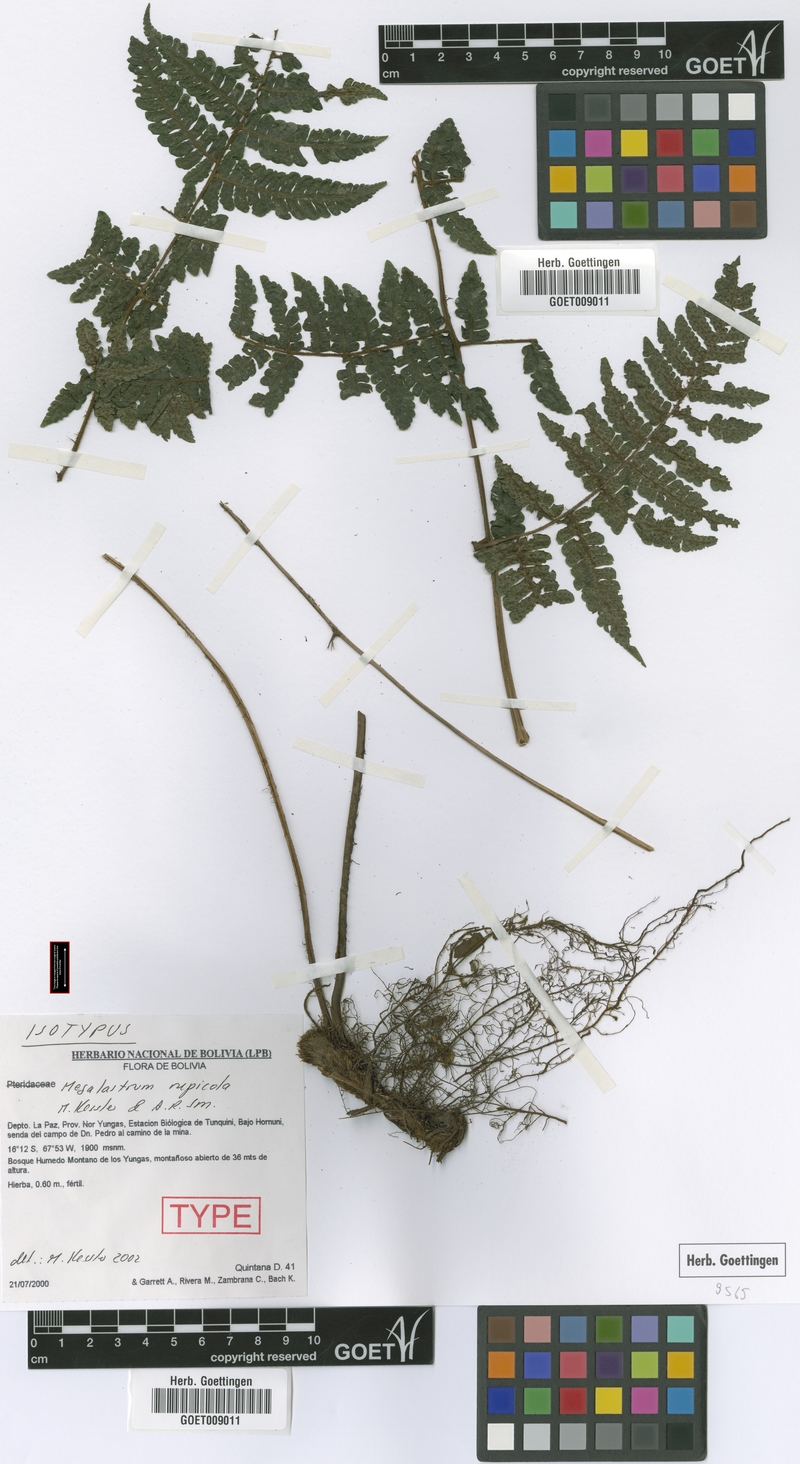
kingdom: Plantae
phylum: Tracheophyta
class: Polypodiopsida
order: Polypodiales
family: Dryopteridaceae
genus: Megalastrum
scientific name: Megalastrum rupicola
